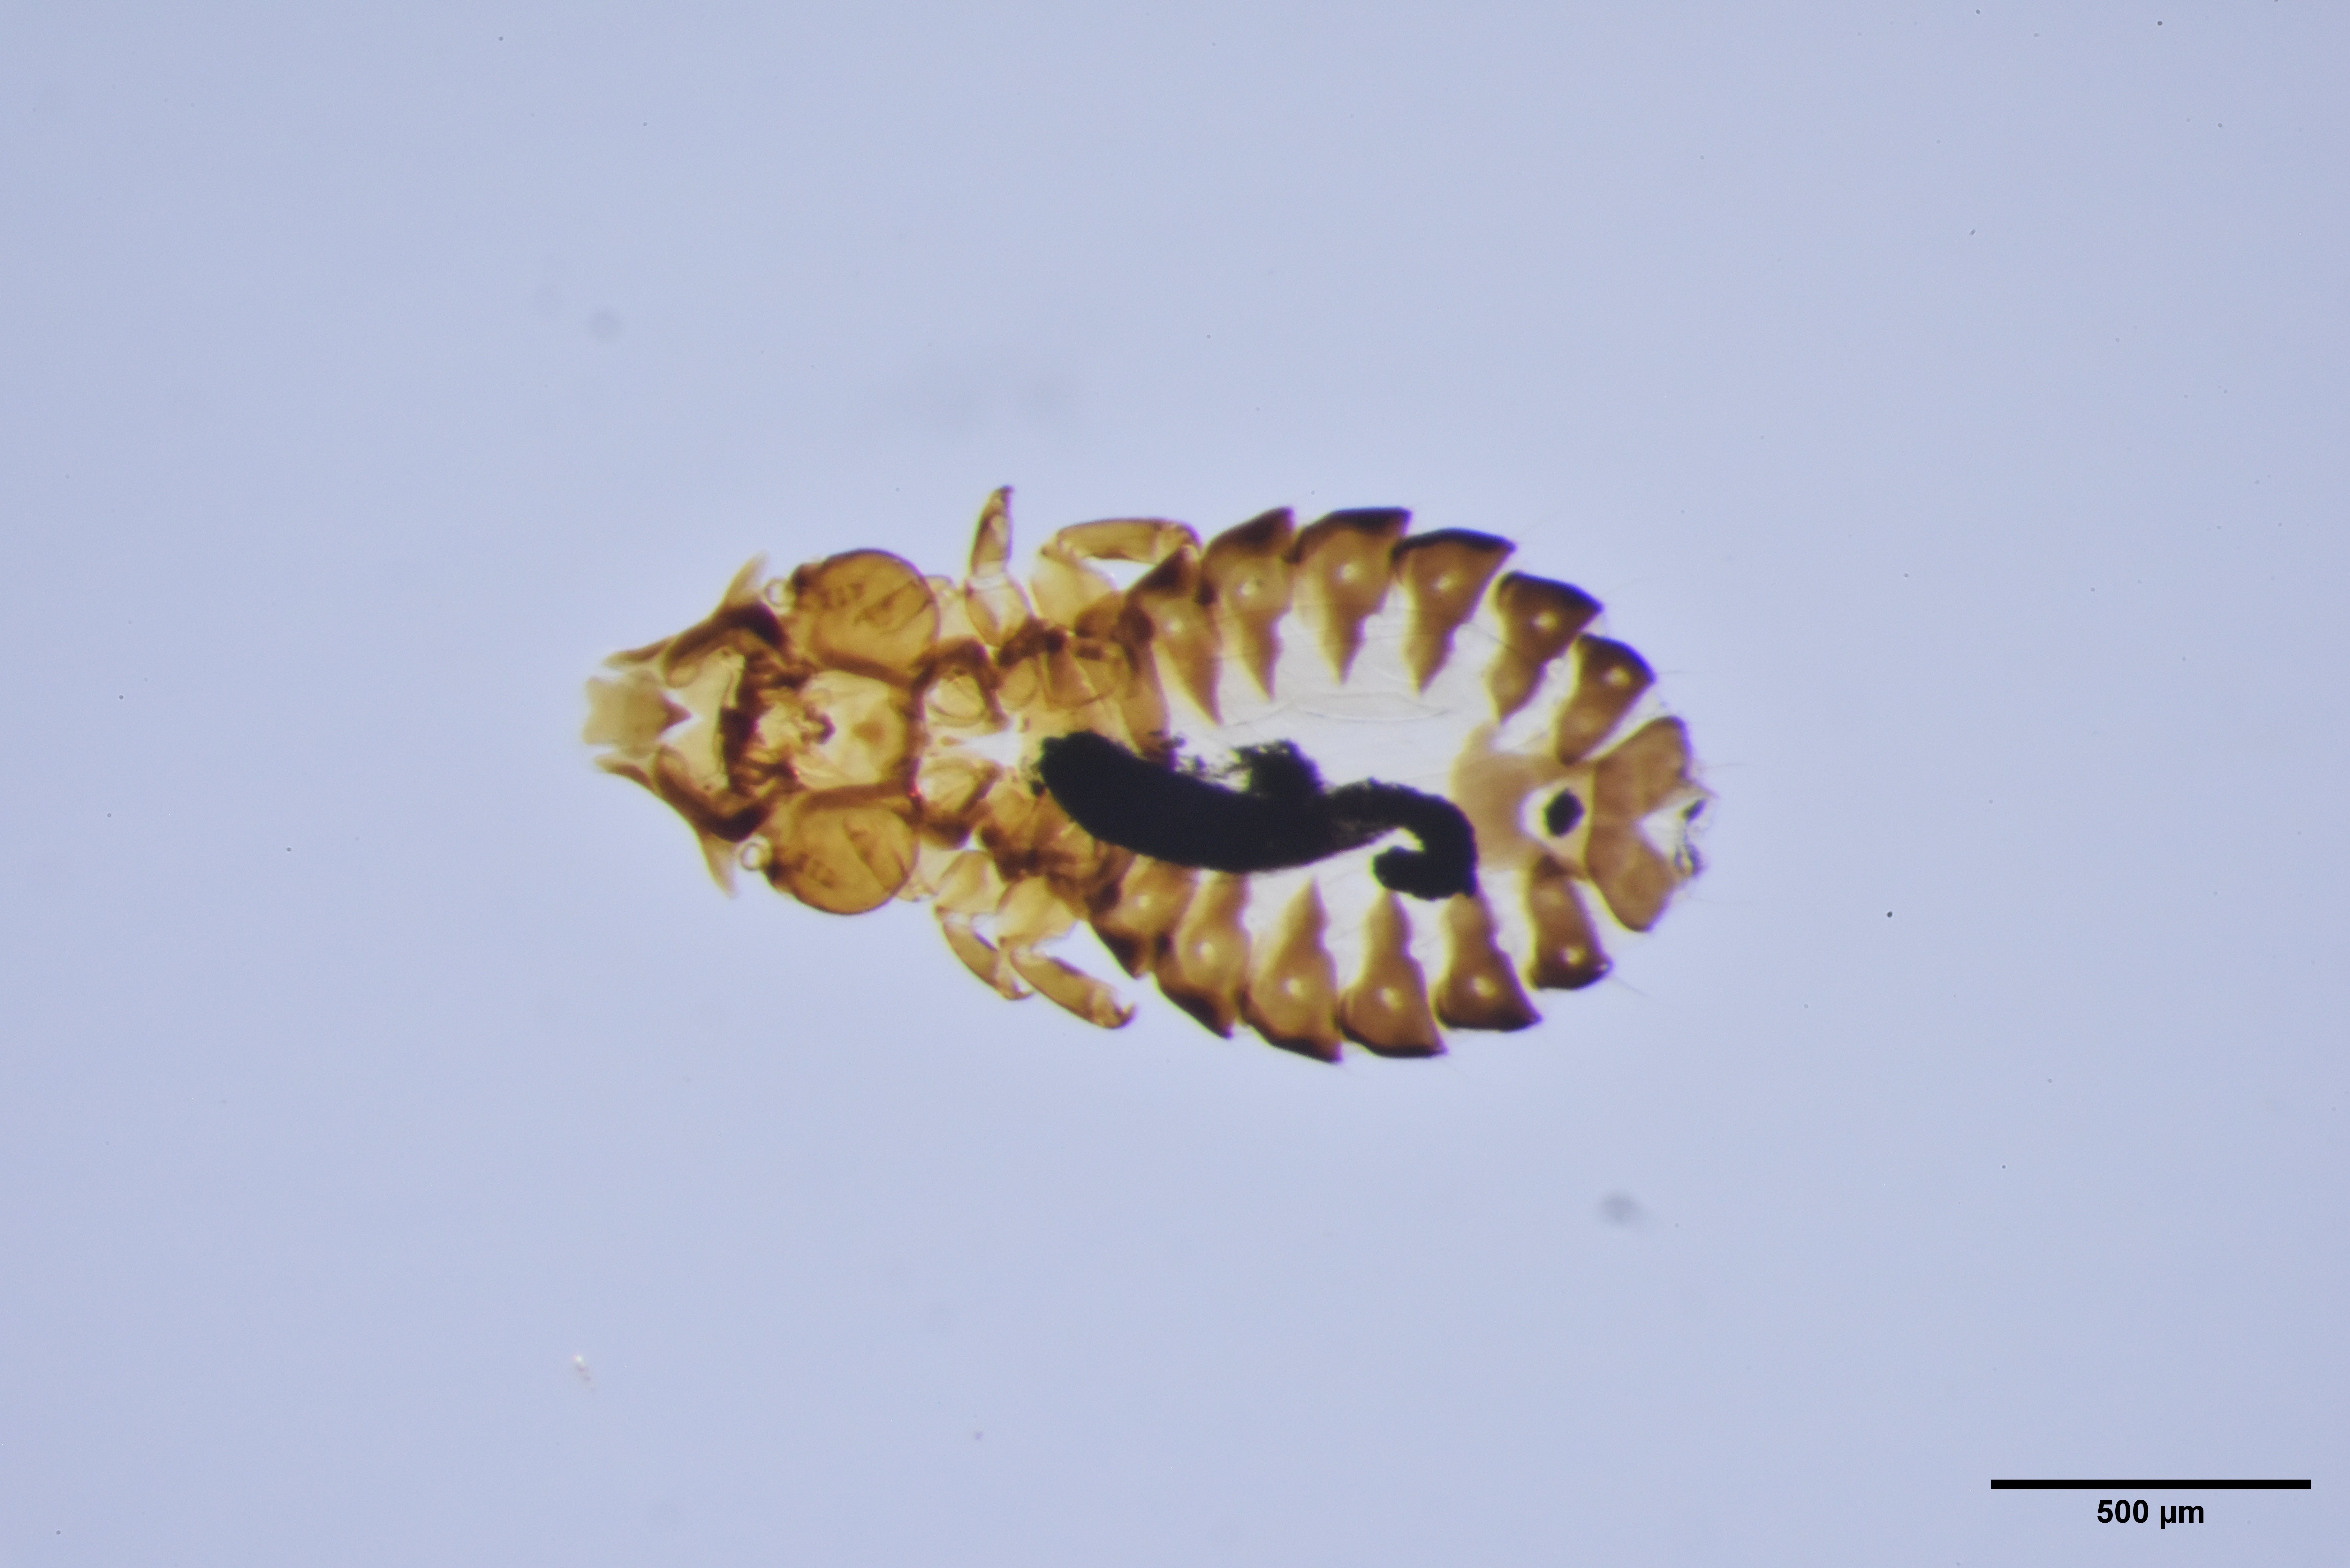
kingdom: Animalia
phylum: Arthropoda
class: Insecta
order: Psocodea
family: Philopteridae
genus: Saemundssonia
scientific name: Saemundssonia fraterculae
